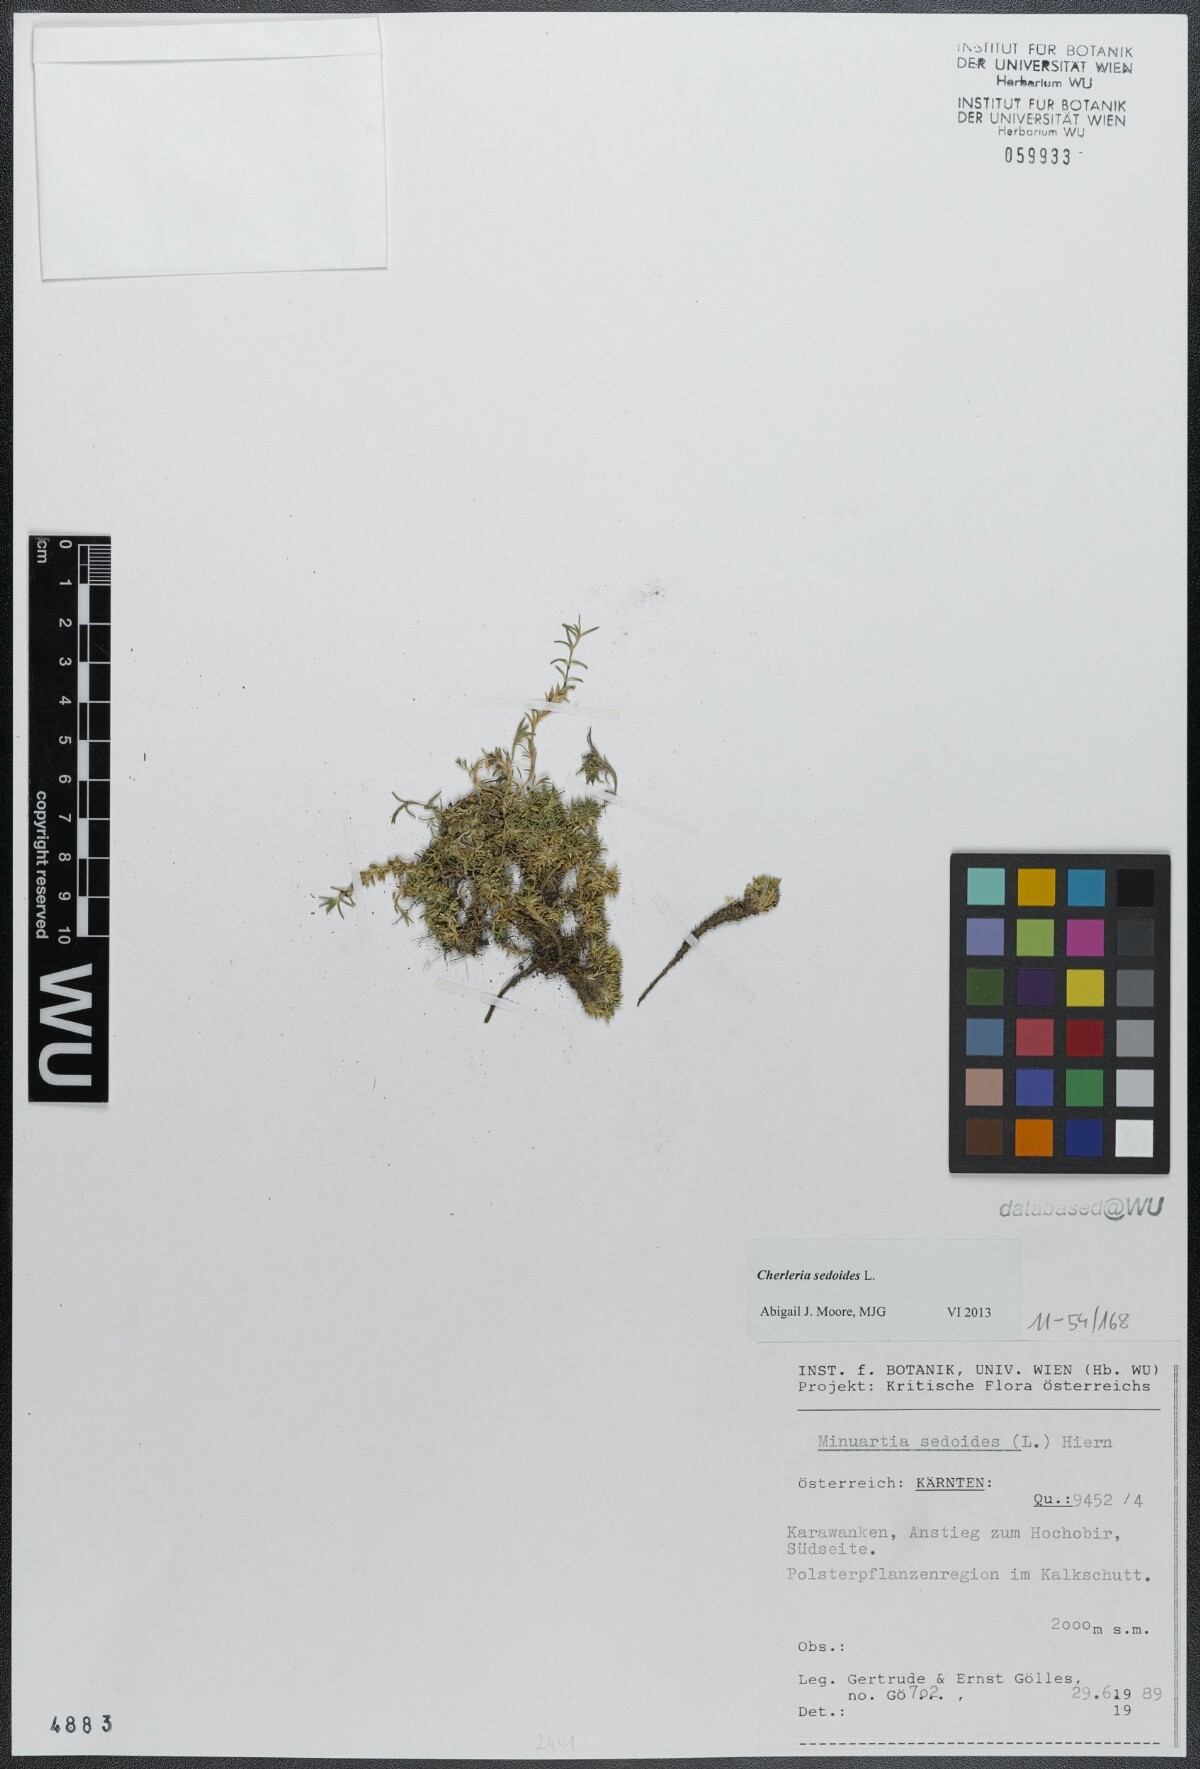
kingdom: Plantae
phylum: Tracheophyta
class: Magnoliopsida
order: Caryophyllales
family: Caryophyllaceae
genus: Cherleria
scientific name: Cherleria sedoides
